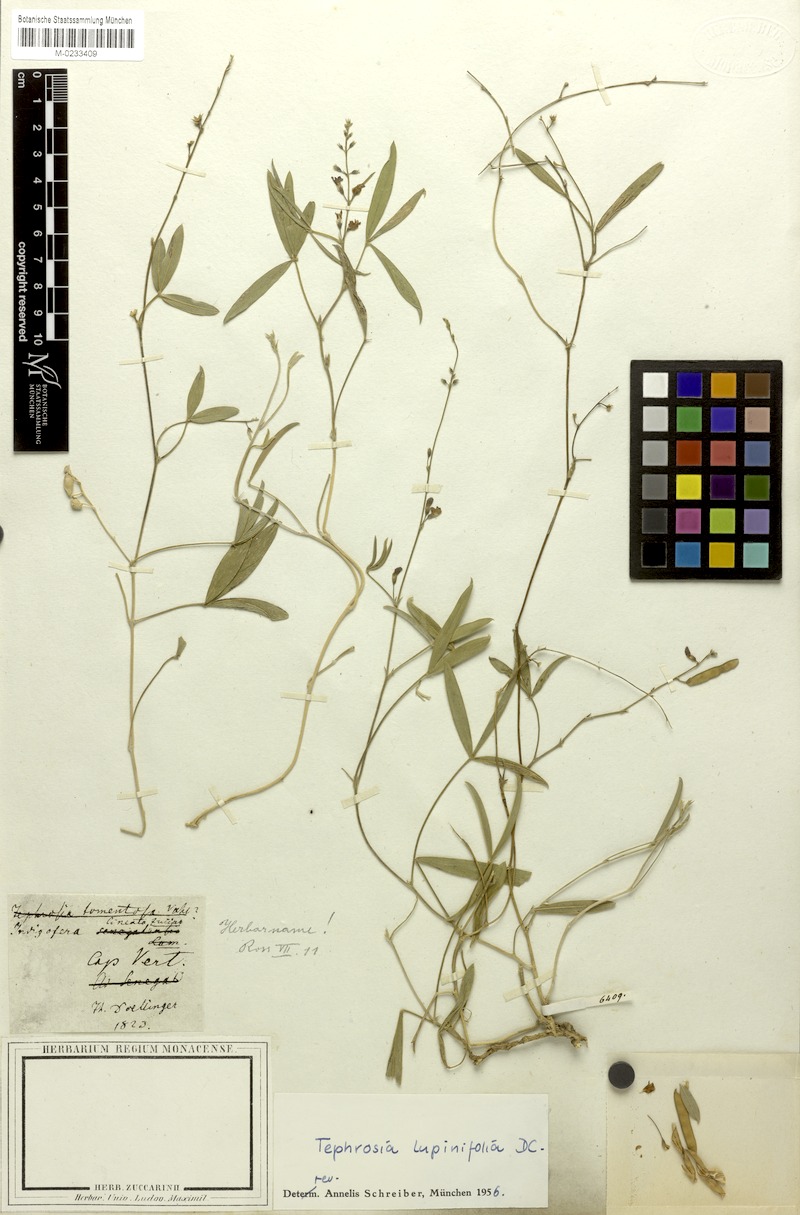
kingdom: Plantae
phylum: Tracheophyta
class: Magnoliopsida
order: Fabales
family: Fabaceae
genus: Tephrosia
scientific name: Tephrosia lupinifolia
